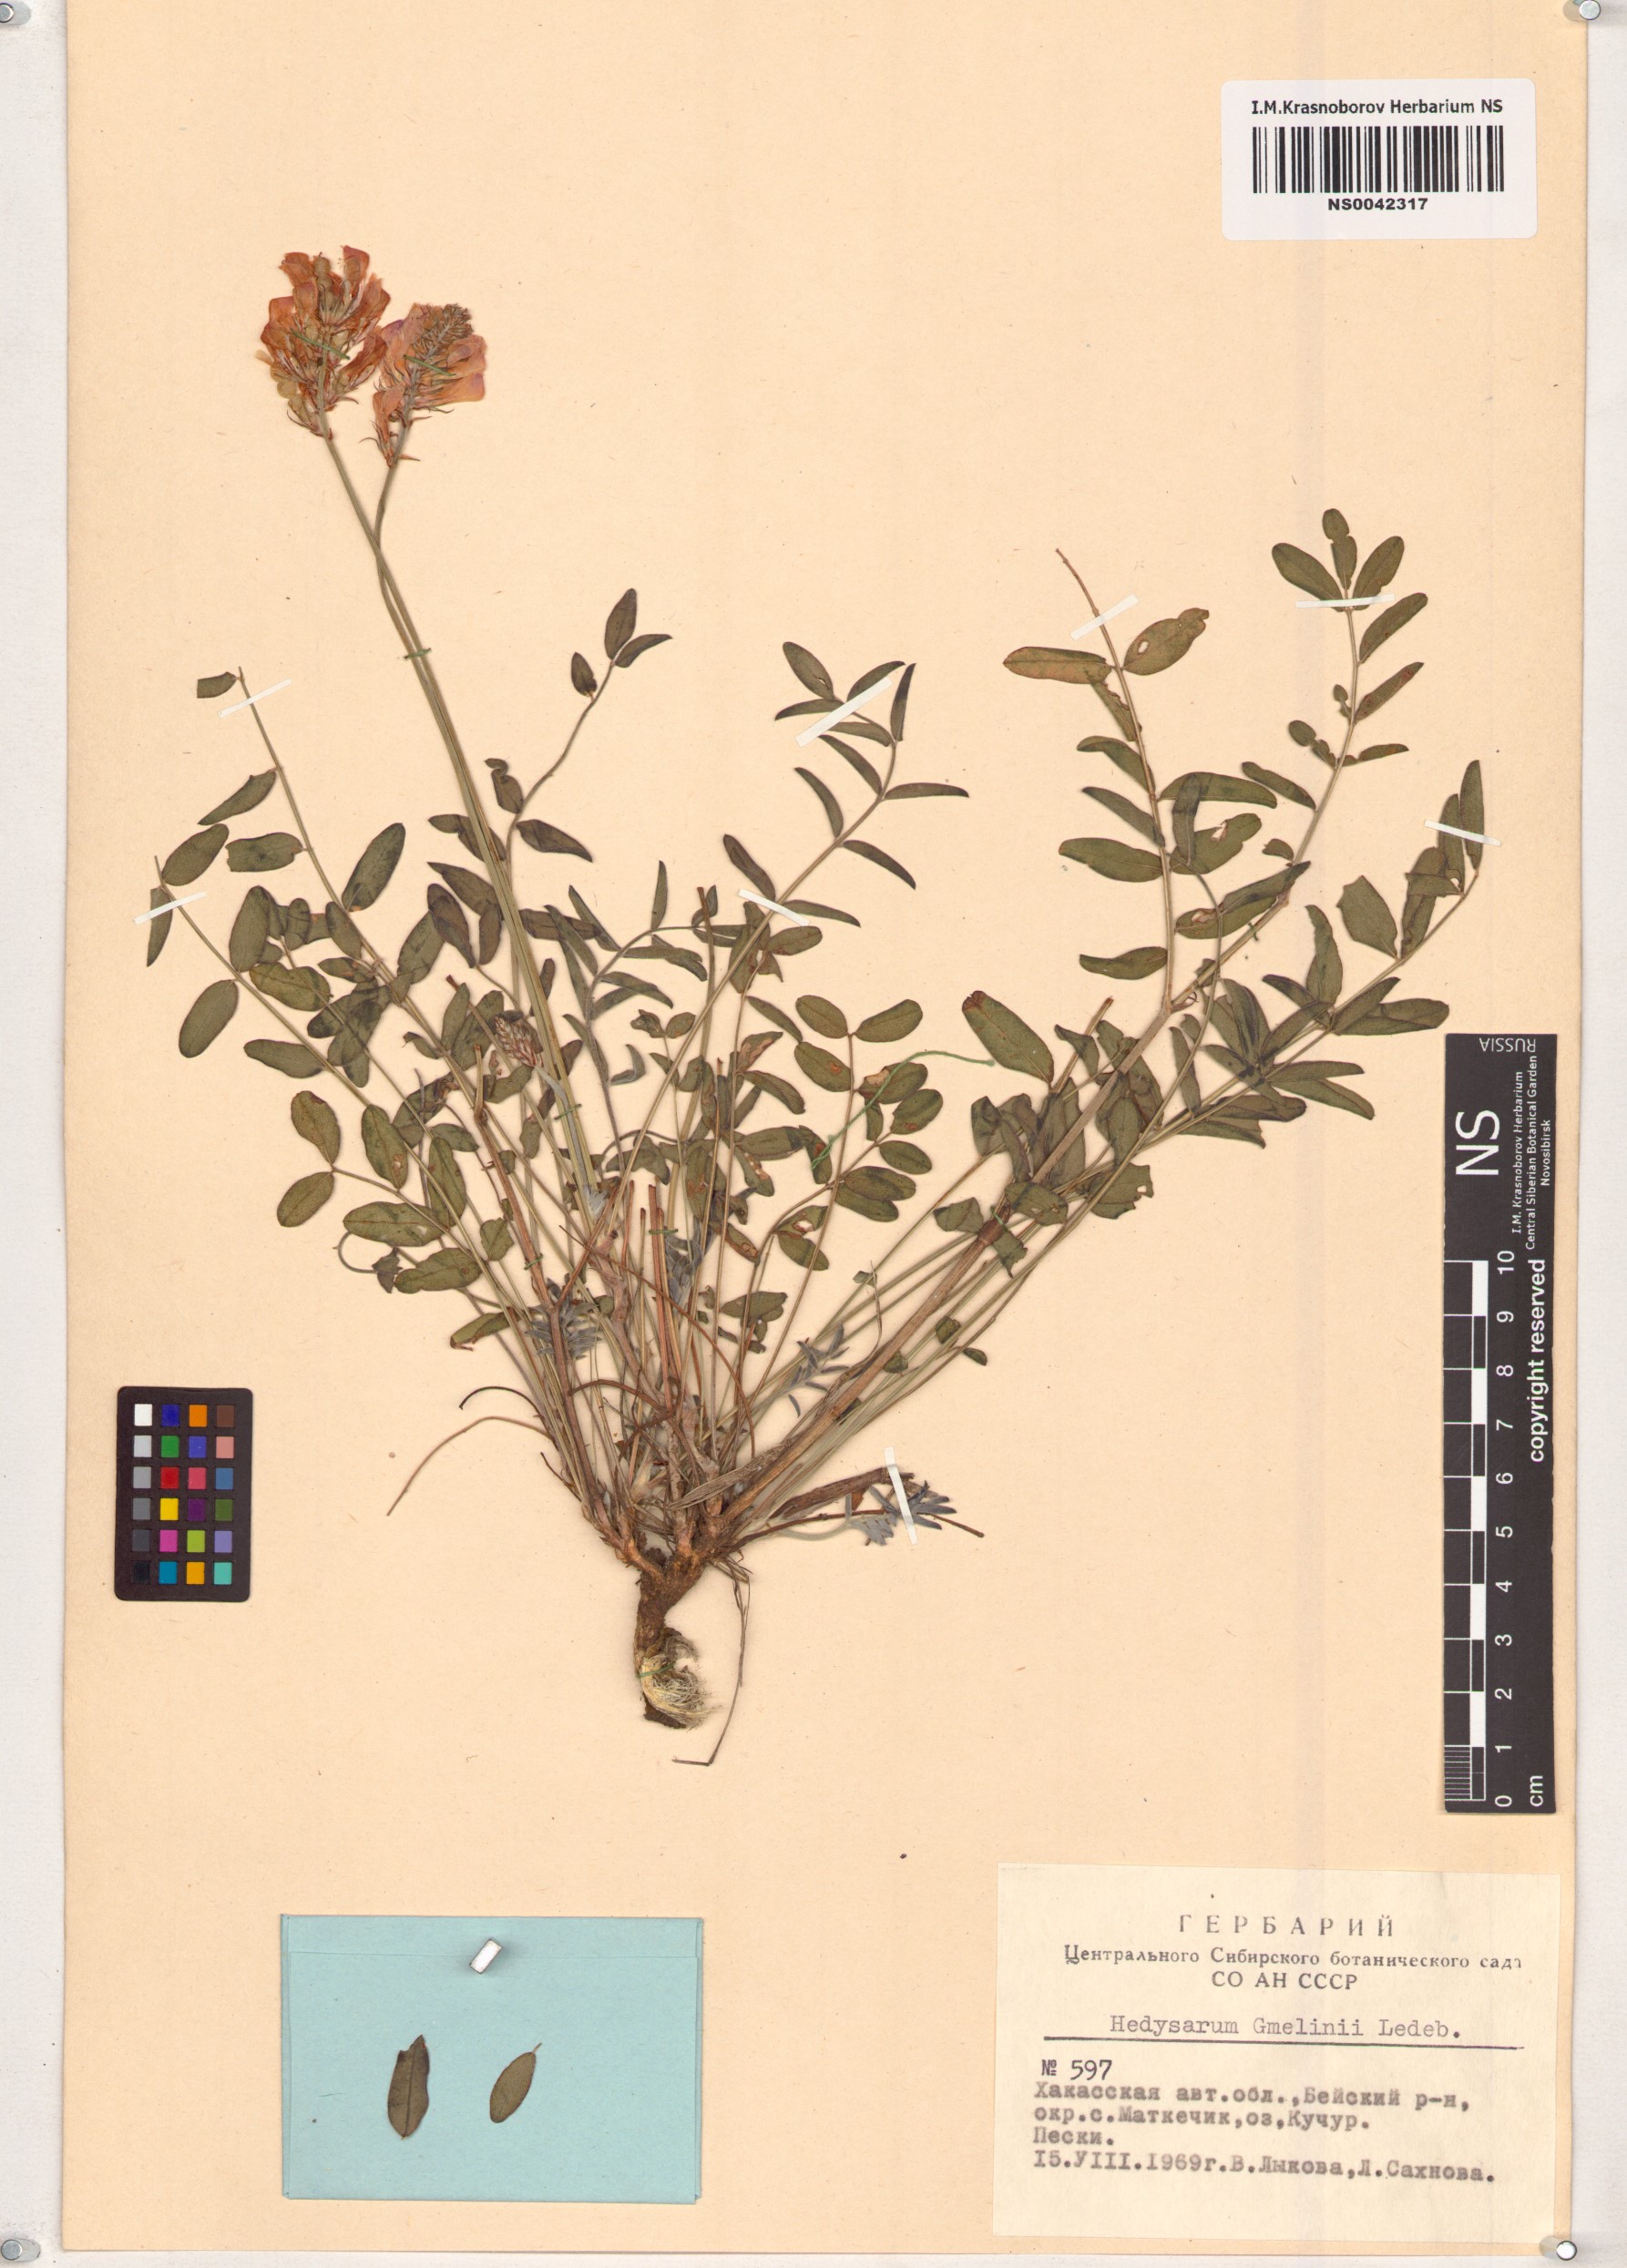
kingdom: Plantae
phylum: Tracheophyta
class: Magnoliopsida
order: Fabales
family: Fabaceae
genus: Hedysarum
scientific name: Hedysarum gmelinii
